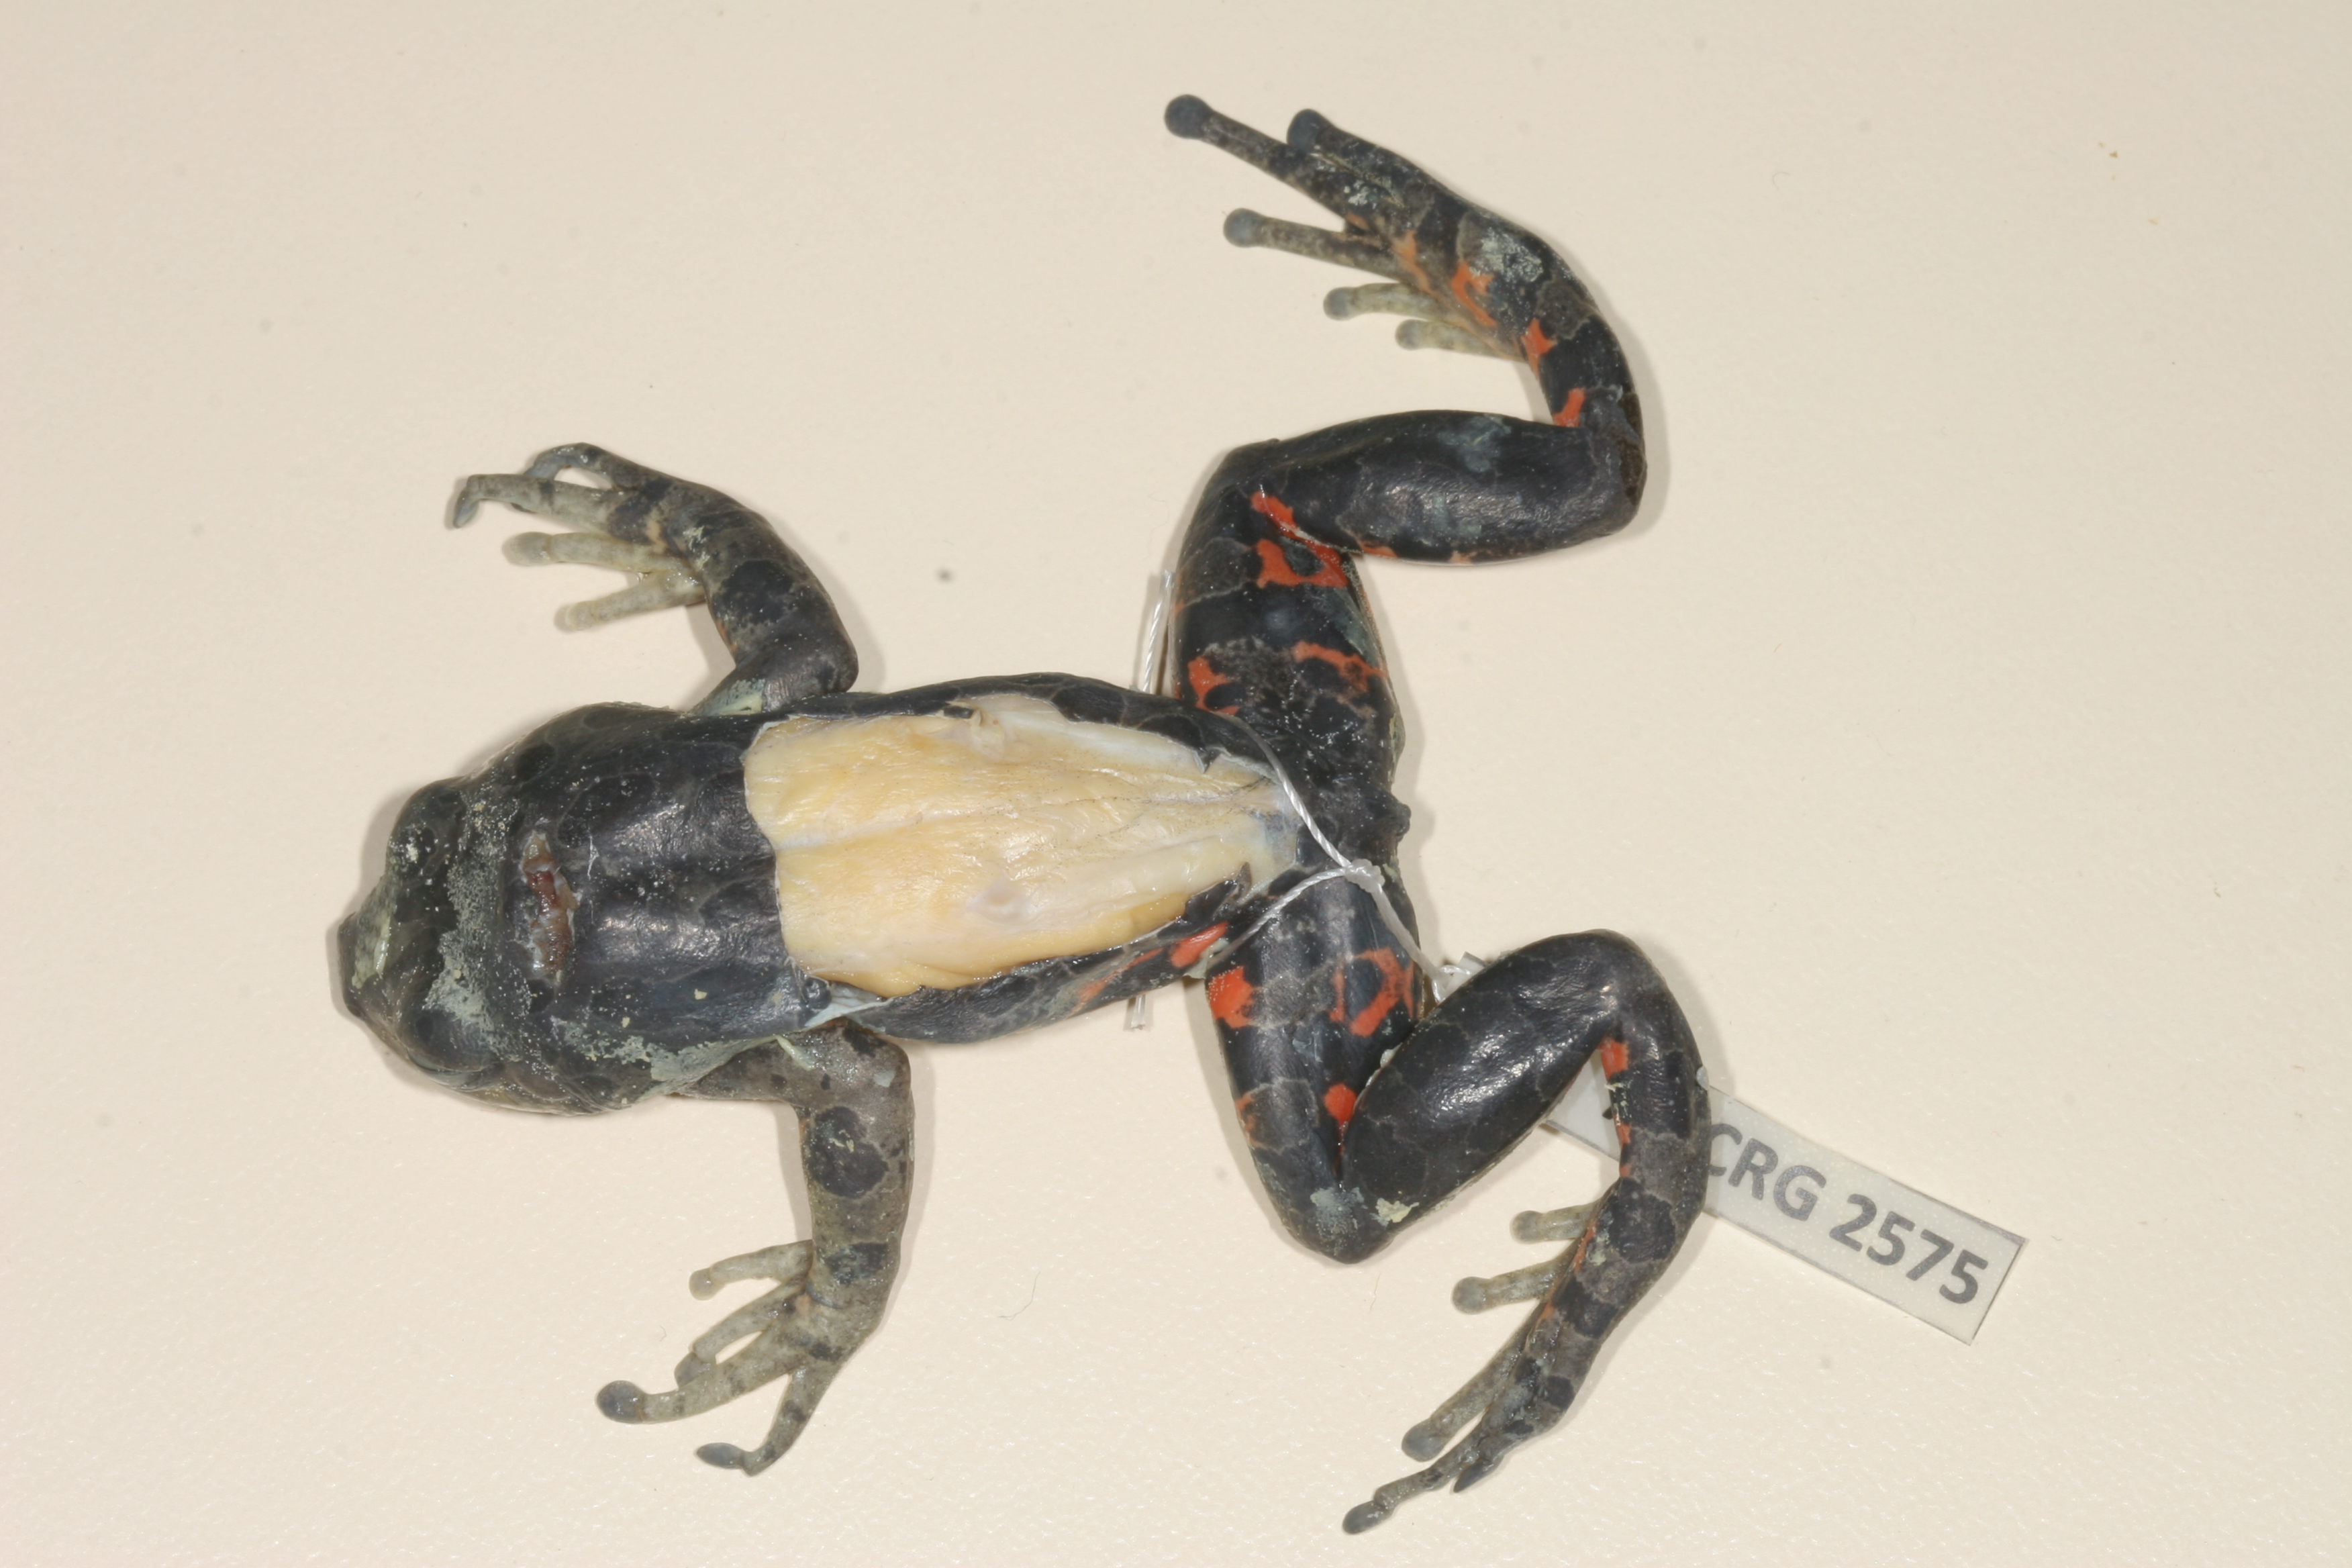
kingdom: Animalia
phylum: Chordata
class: Amphibia
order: Anura
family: Hyperoliidae
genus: Phlyctimantis
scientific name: Phlyctimantis maculatus
